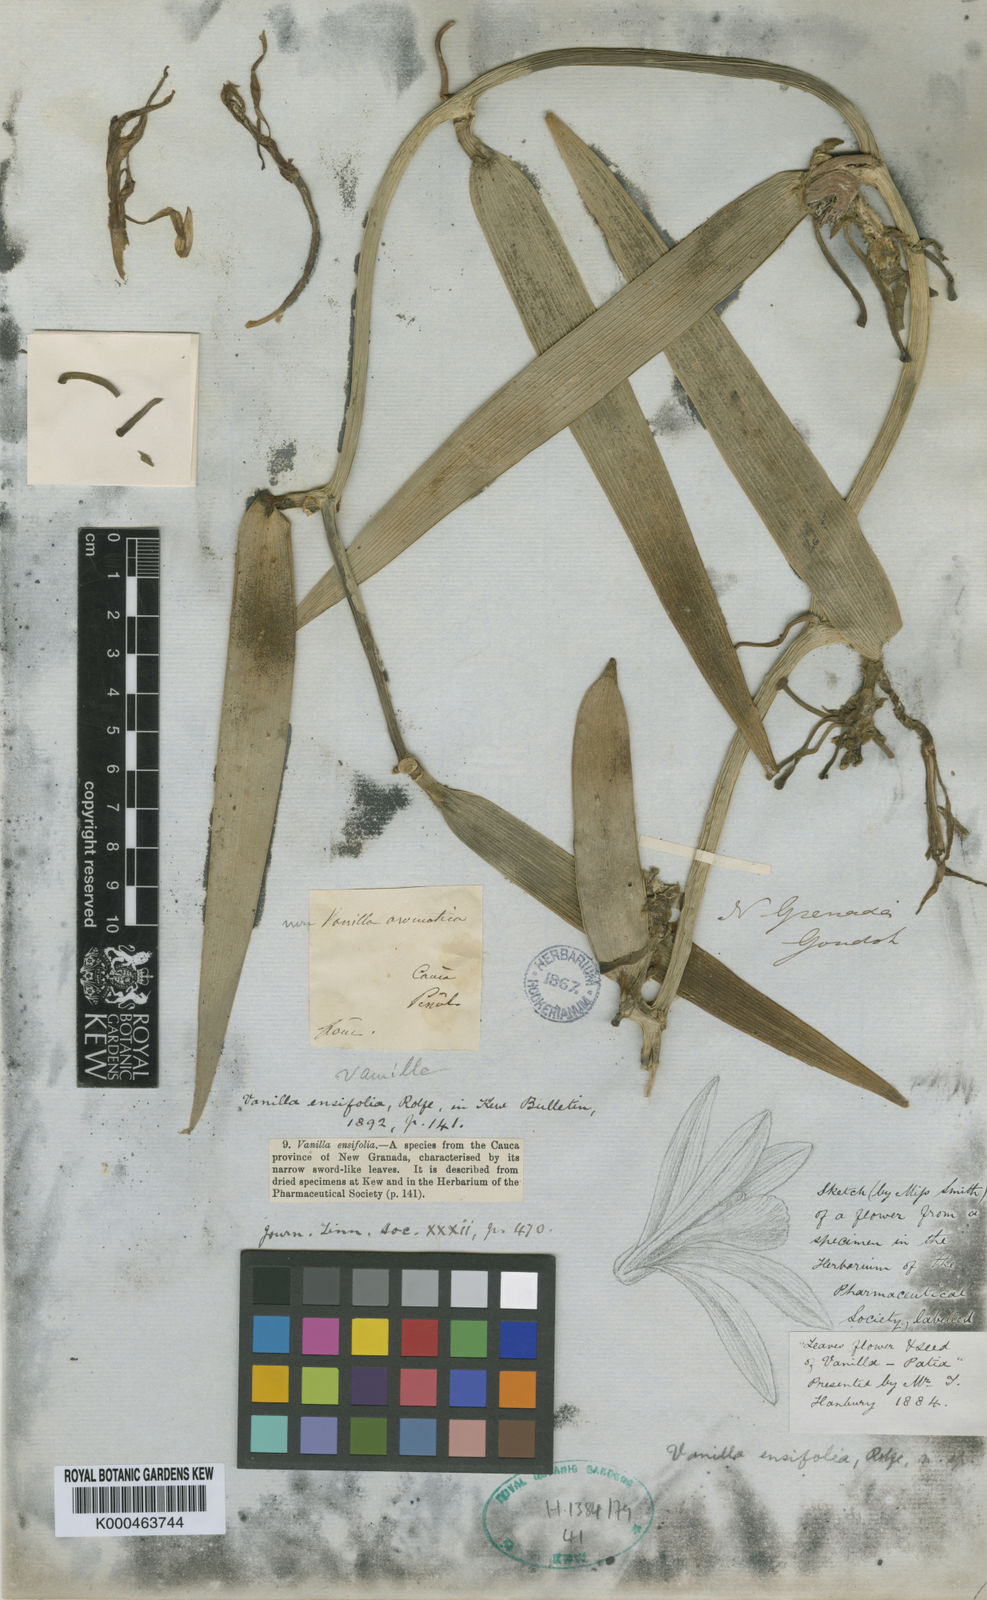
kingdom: Plantae
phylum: Tracheophyta
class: Liliopsida
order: Asparagales
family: Orchidaceae
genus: Vanilla
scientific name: Vanilla odorata
